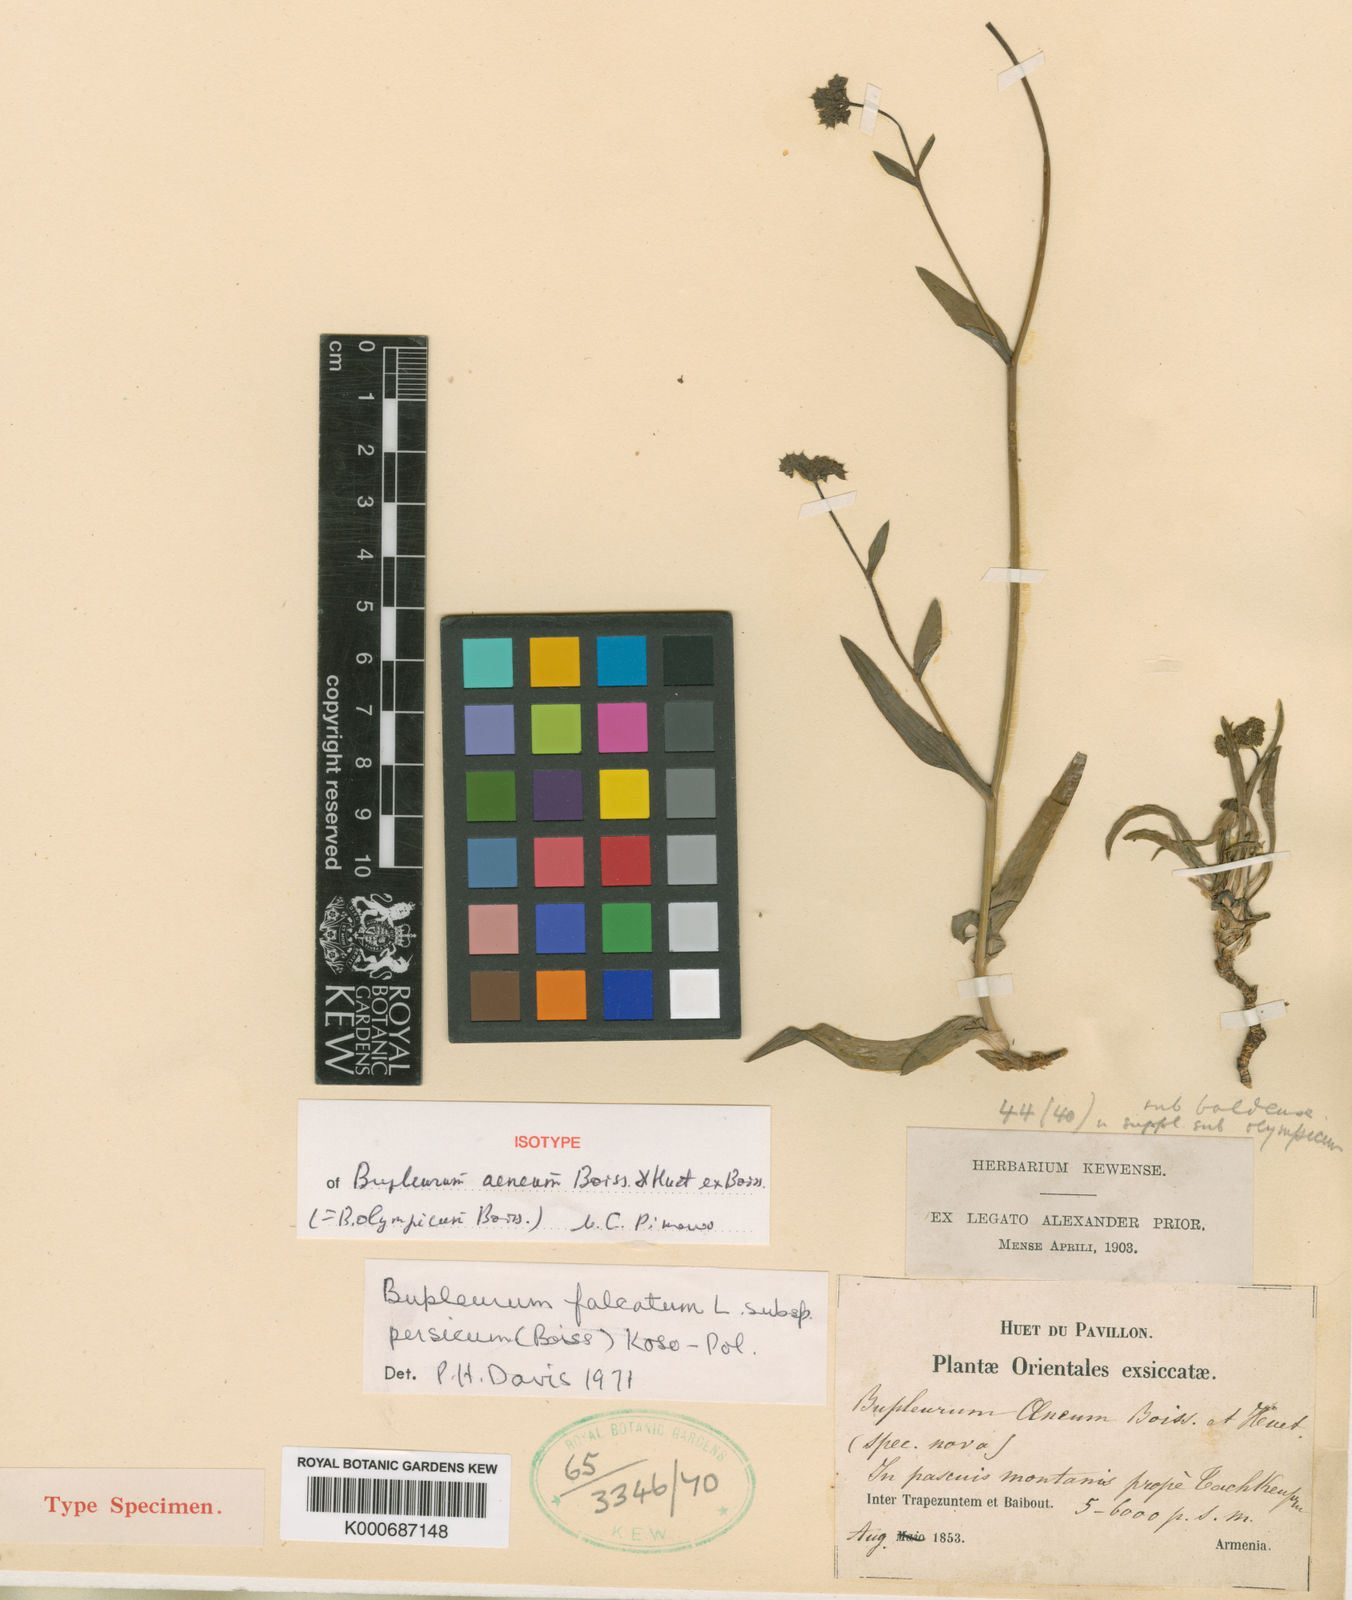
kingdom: Plantae
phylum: Tracheophyta
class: Magnoliopsida
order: Apiales
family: Apiaceae
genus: Bupleurum
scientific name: Bupleurum falcatum
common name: Sickle-leaved hare's-ear
